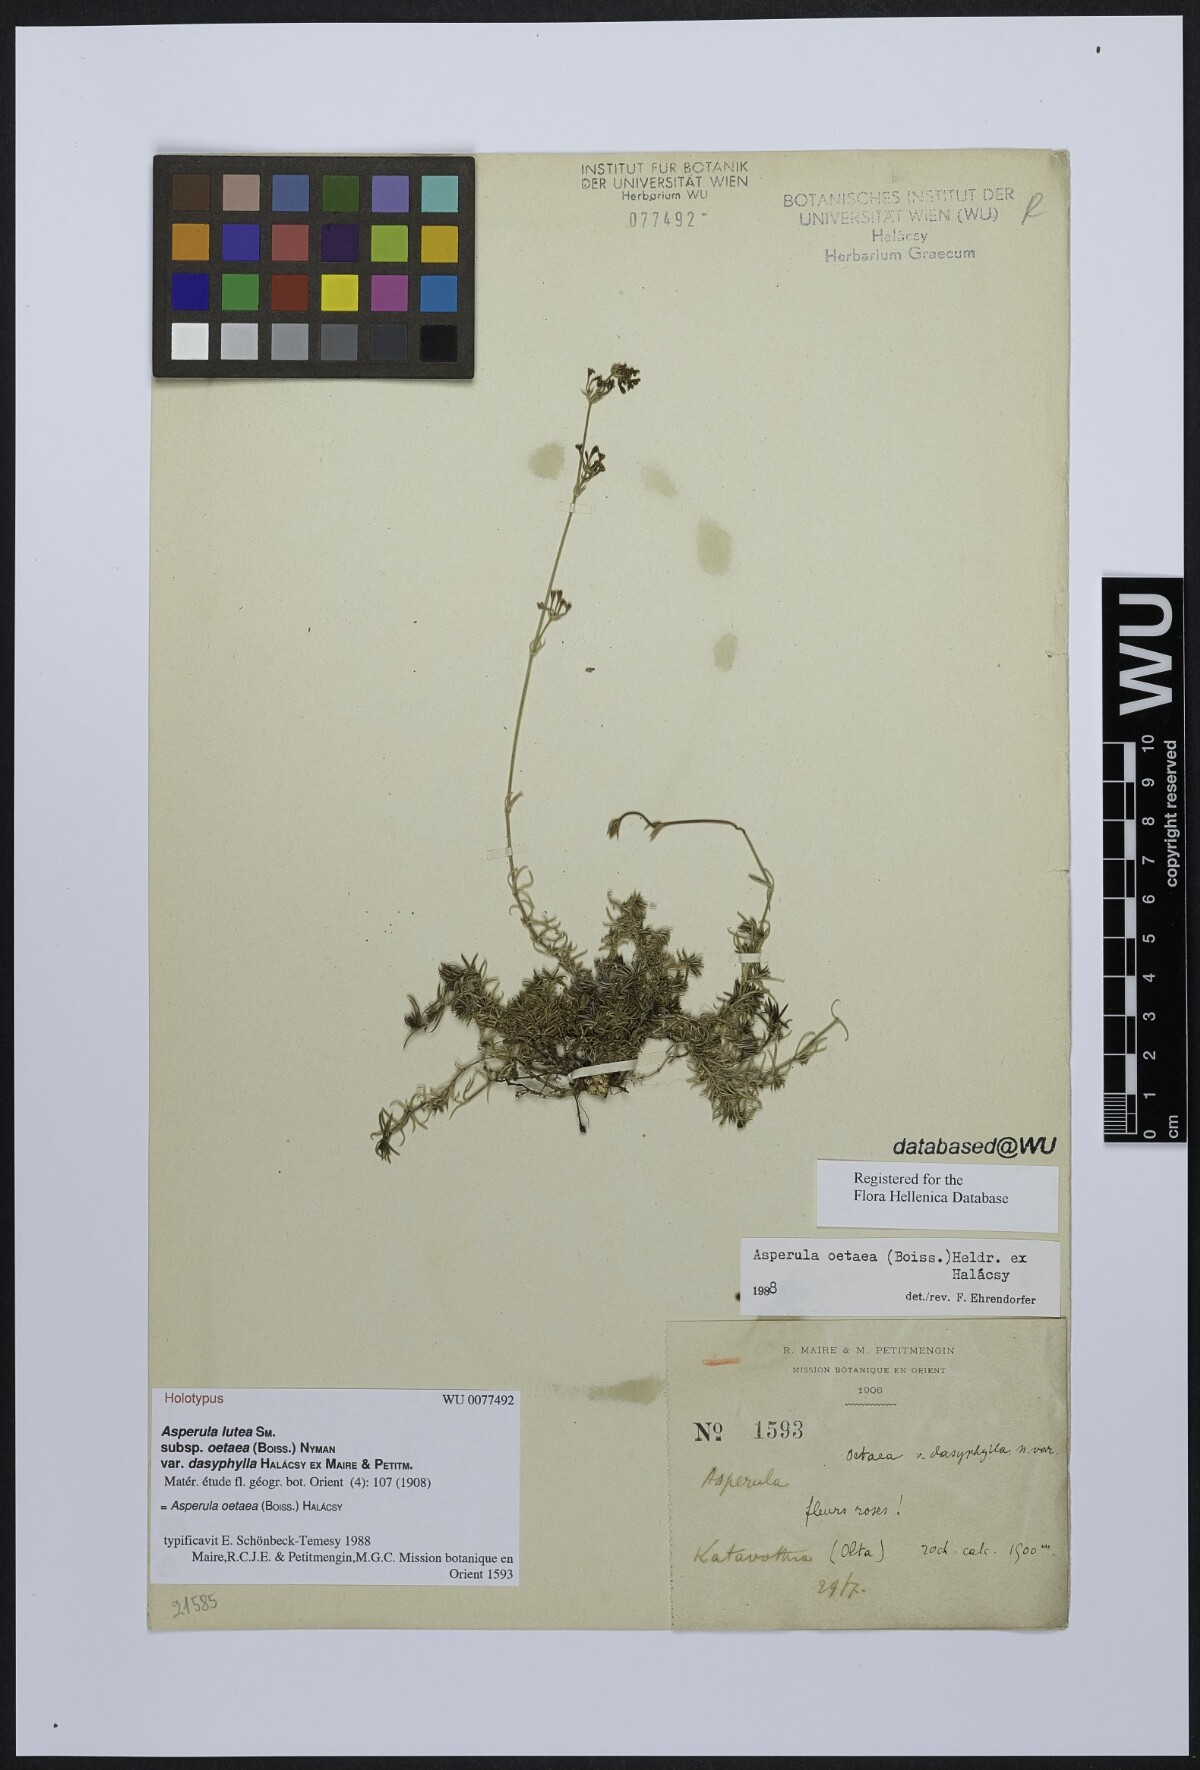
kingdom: Plantae
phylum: Tracheophyta
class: Magnoliopsida
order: Gentianales
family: Rubiaceae
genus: Cynanchica
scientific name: Cynanchica lutea
